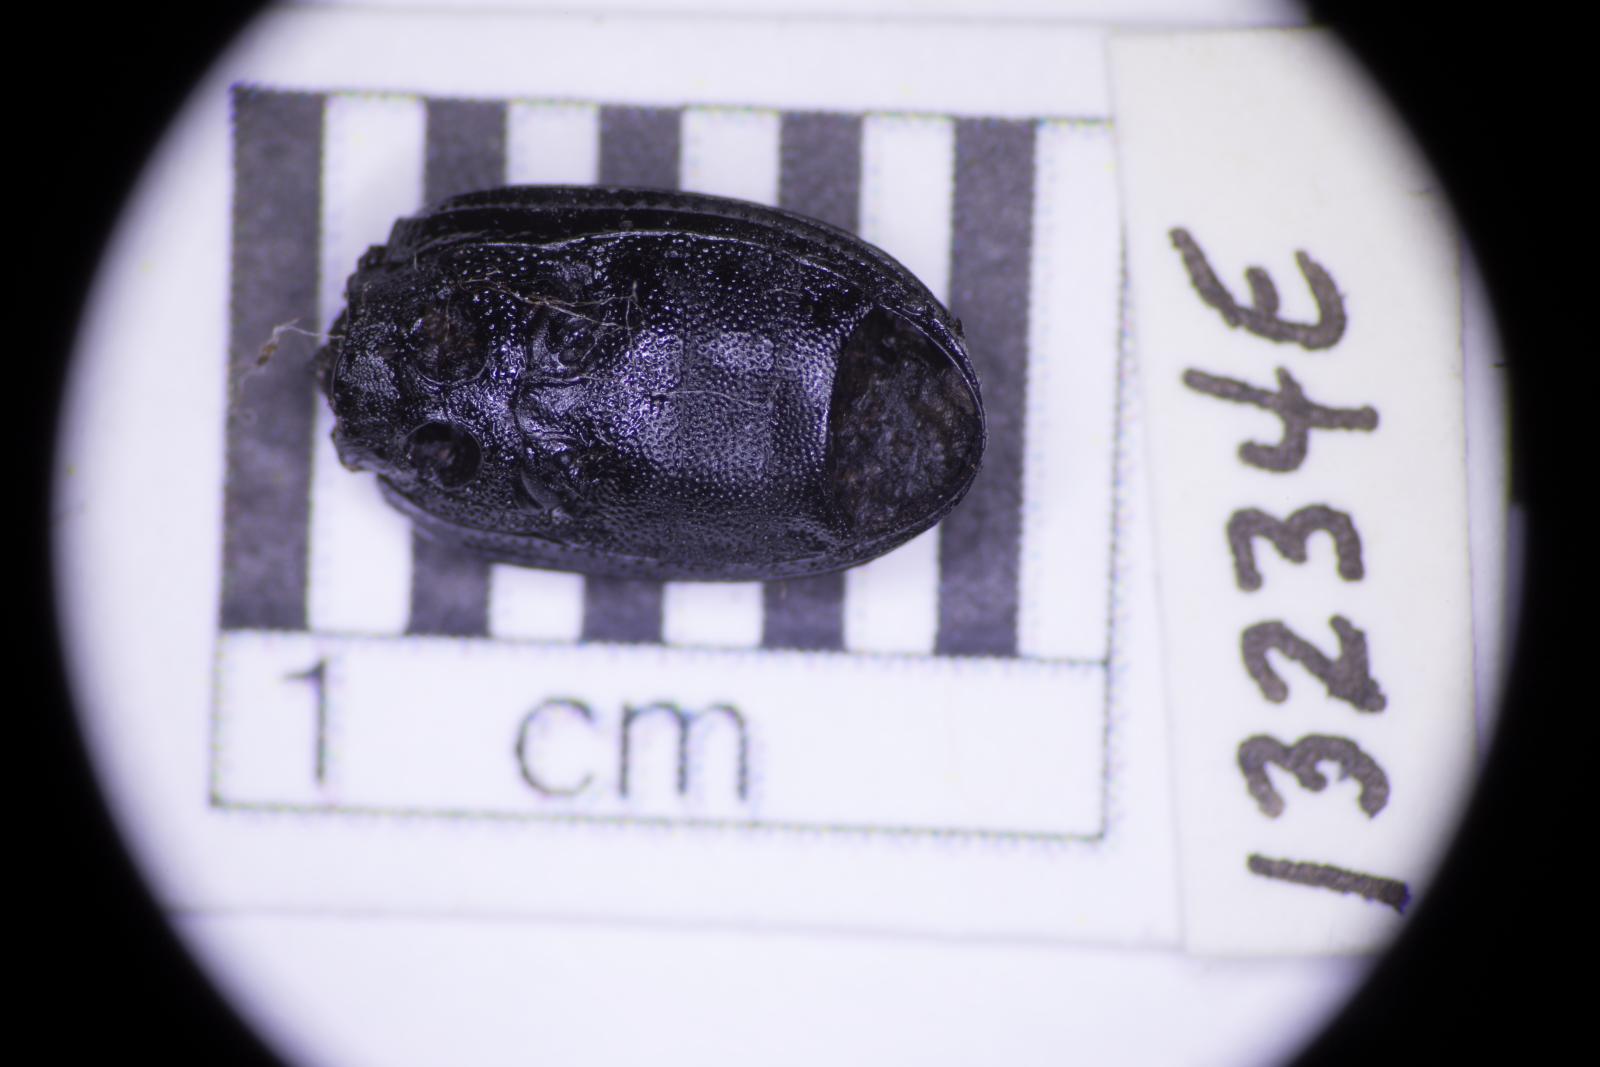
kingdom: Animalia
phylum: Arthropoda
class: Insecta
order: Coleoptera
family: Tenebrionidae
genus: Apsena
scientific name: Apsena laticornis
